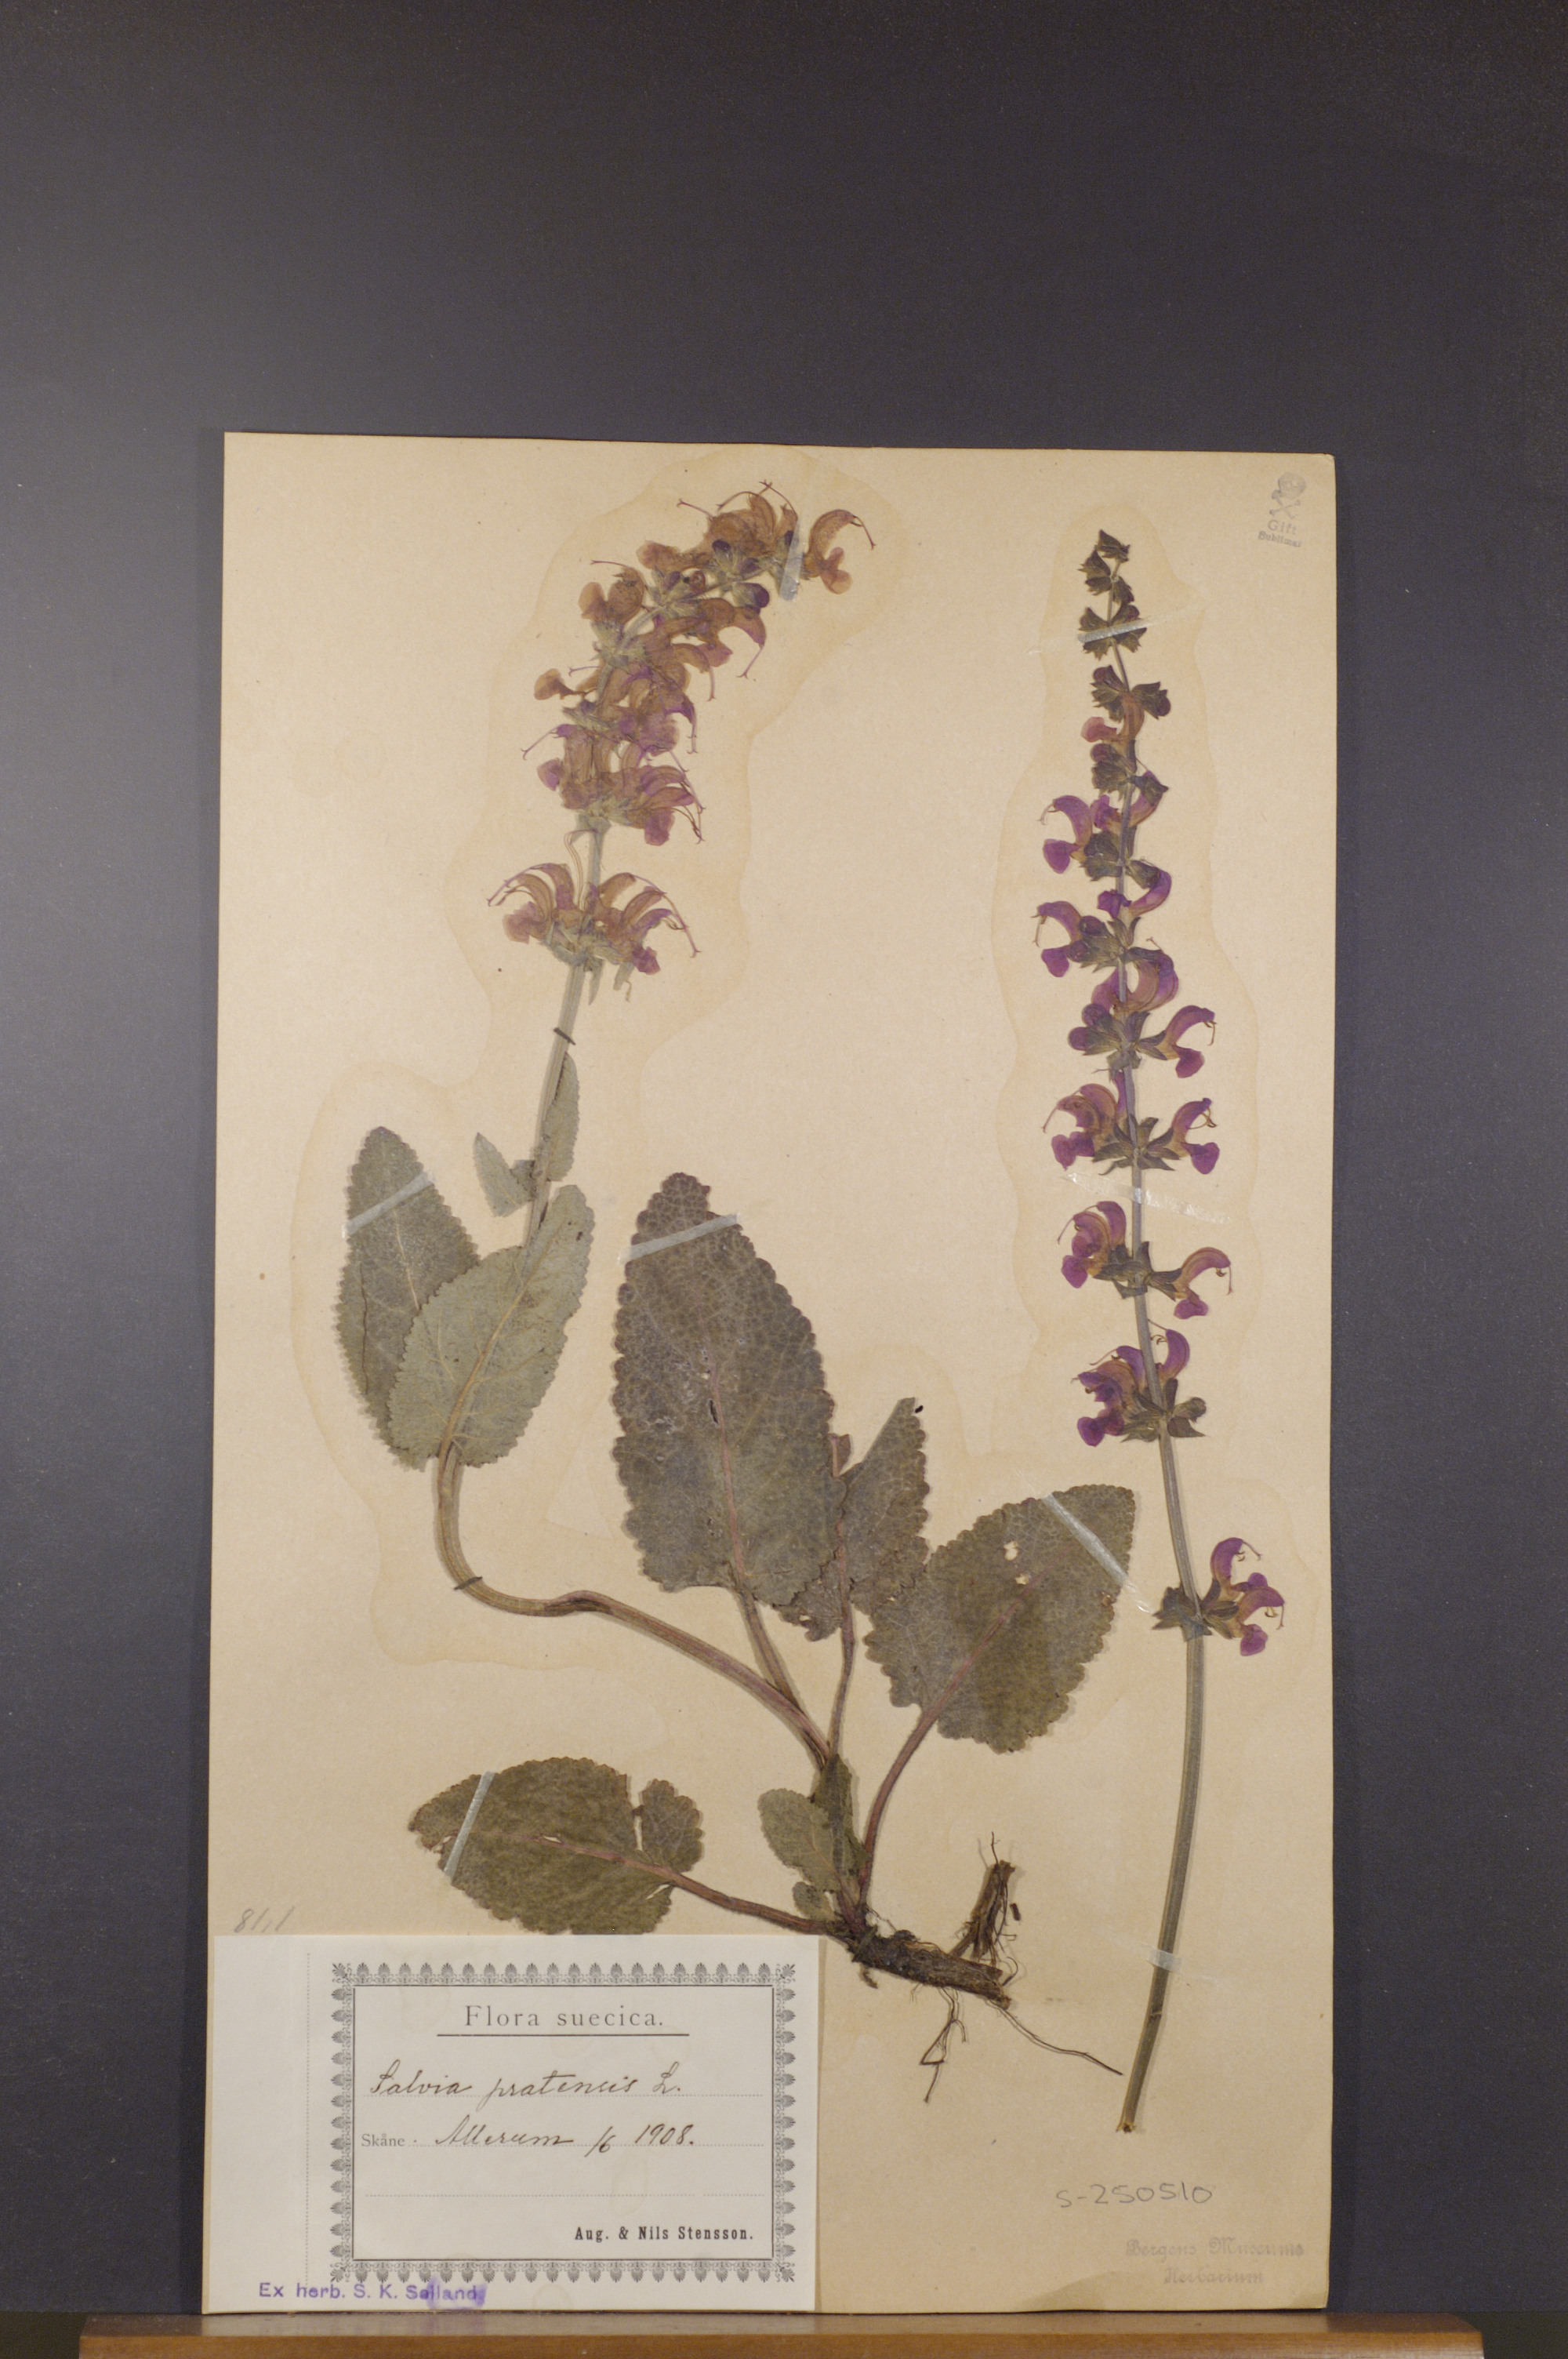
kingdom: Plantae
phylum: Tracheophyta
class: Magnoliopsida
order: Lamiales
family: Lamiaceae
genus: Salvia
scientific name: Salvia pratensis
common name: Meadow sage
